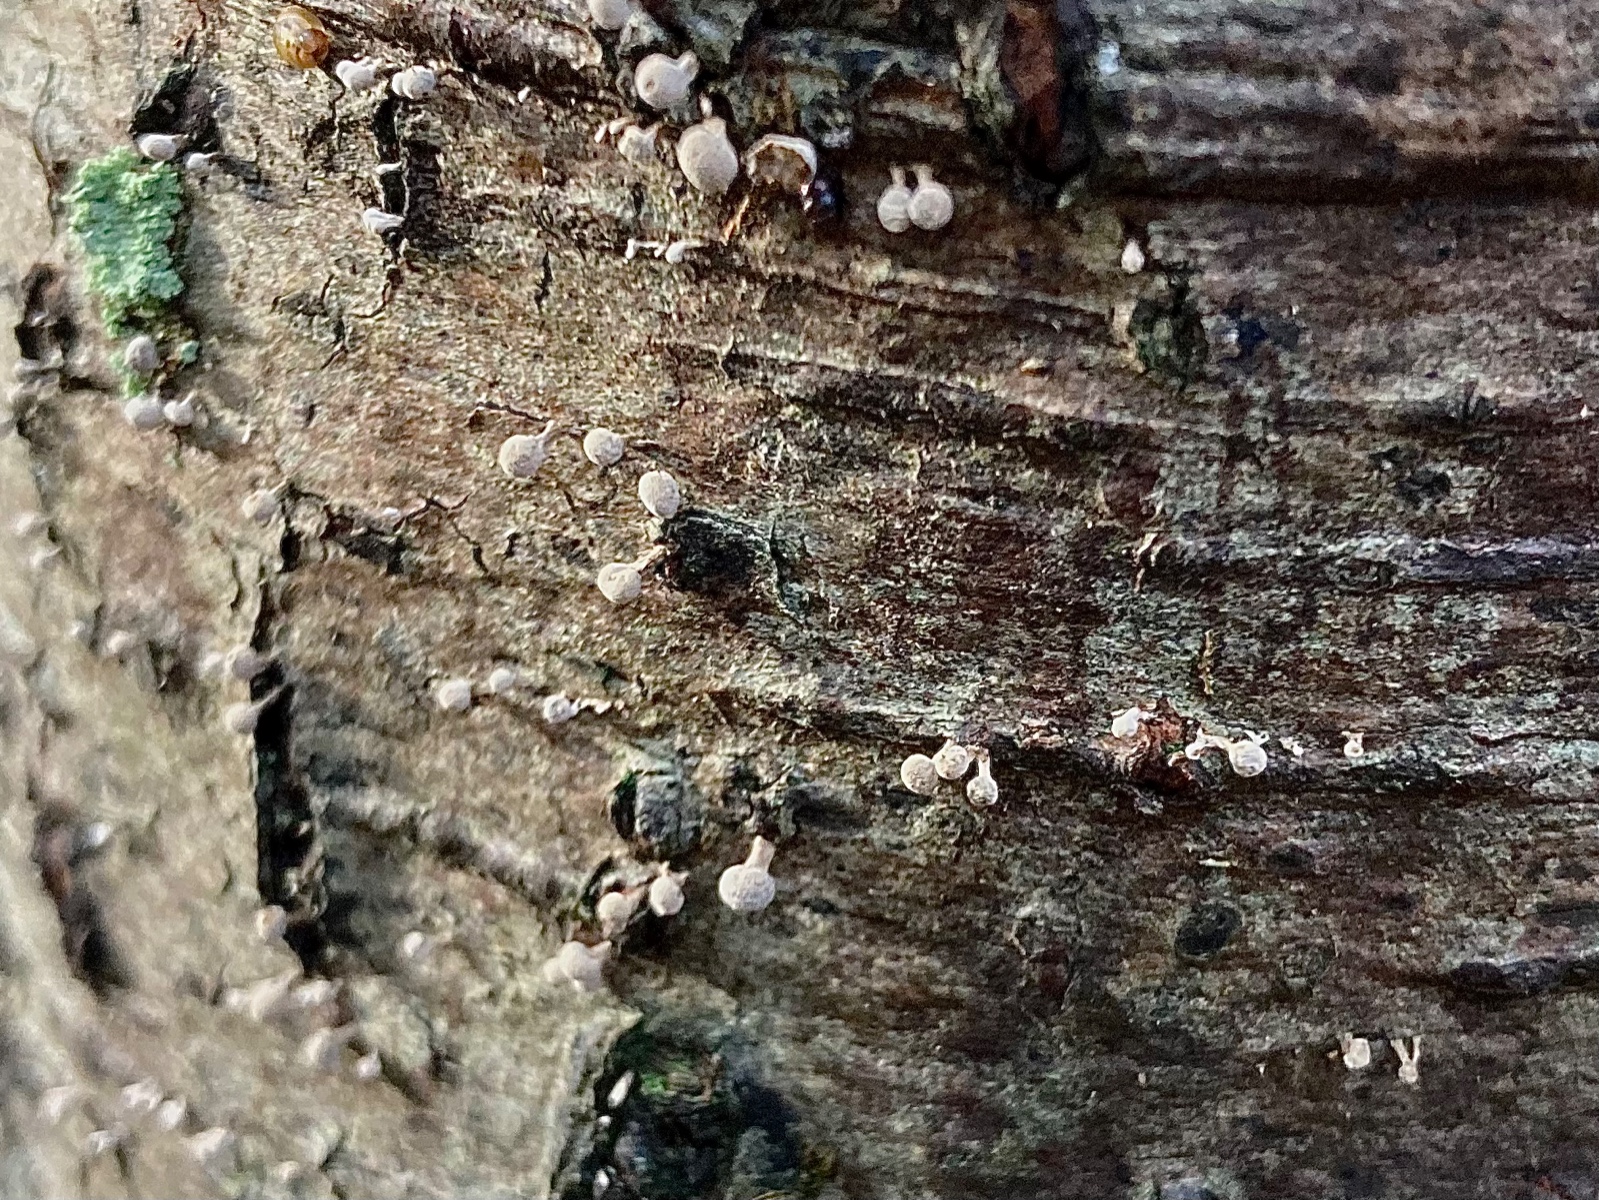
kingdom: Fungi
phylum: Basidiomycota
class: Atractiellomycetes
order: Atractiellales
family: Phleogenaceae
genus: Phleogena
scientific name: Phleogena faginea
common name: pudderkølle
